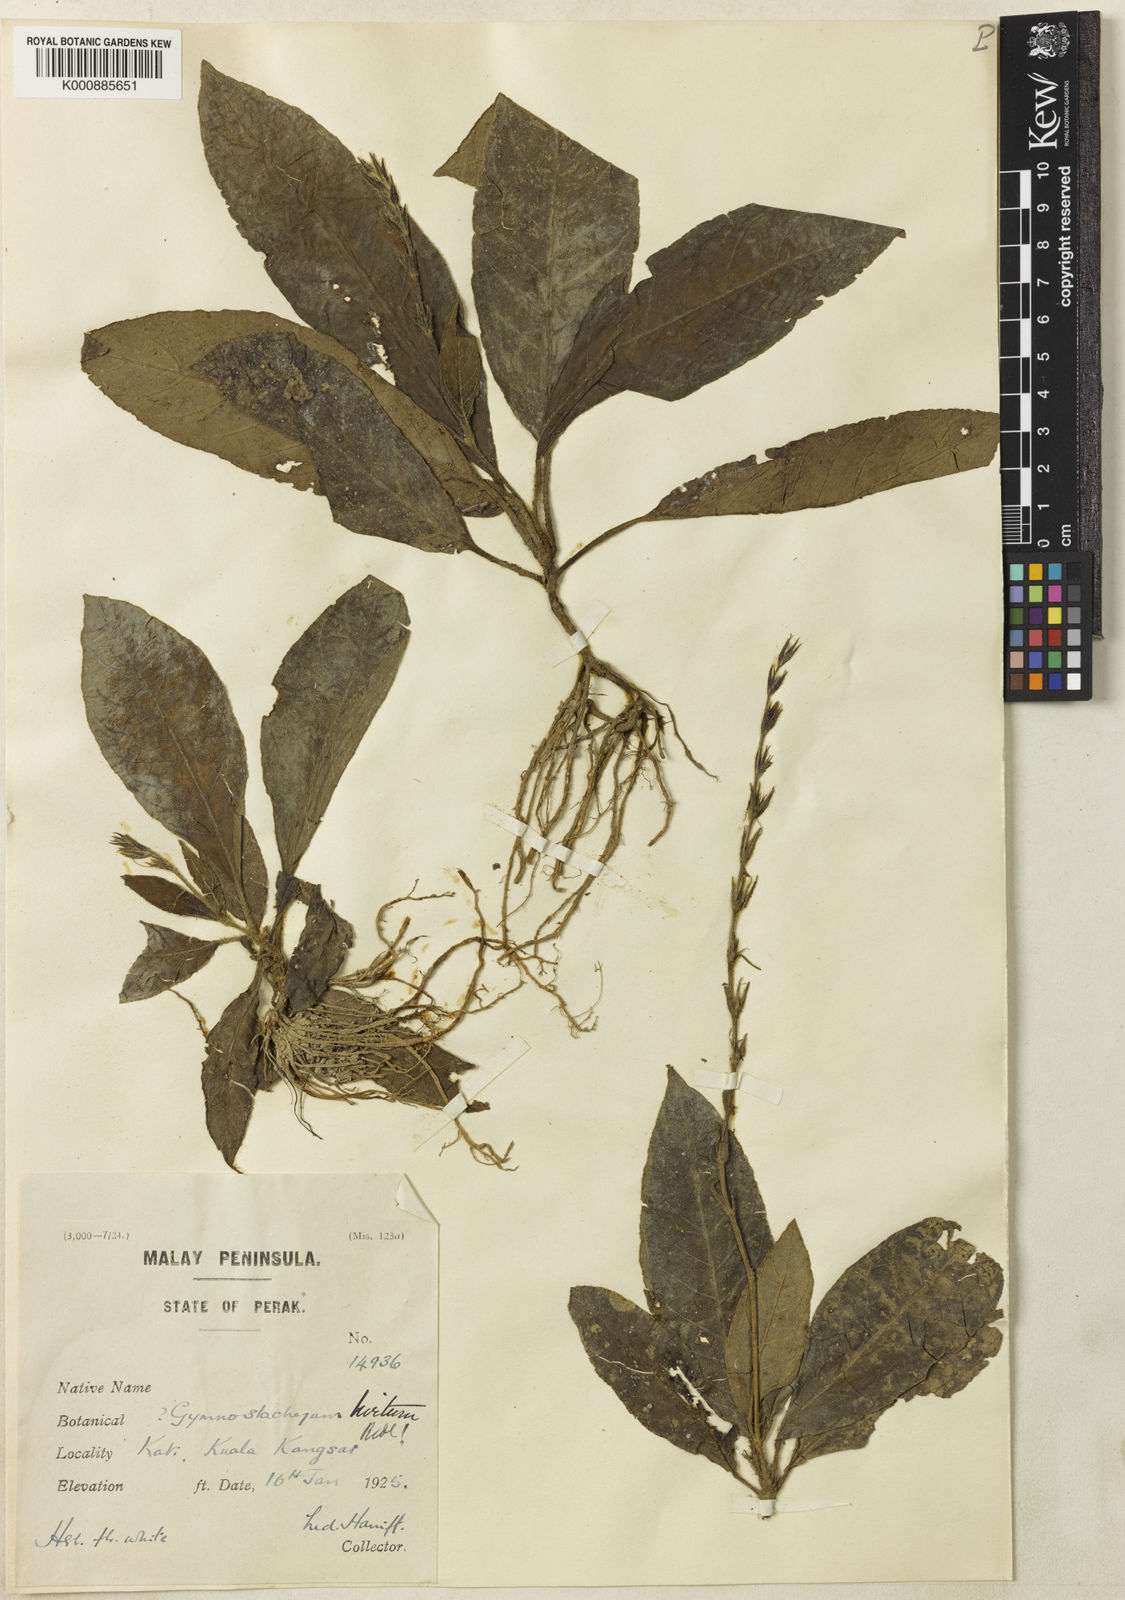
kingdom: Plantae
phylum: Tracheophyta
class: Magnoliopsida
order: Lamiales
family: Acanthaceae
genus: Gymnostachyum
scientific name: Gymnostachyum hirtum
